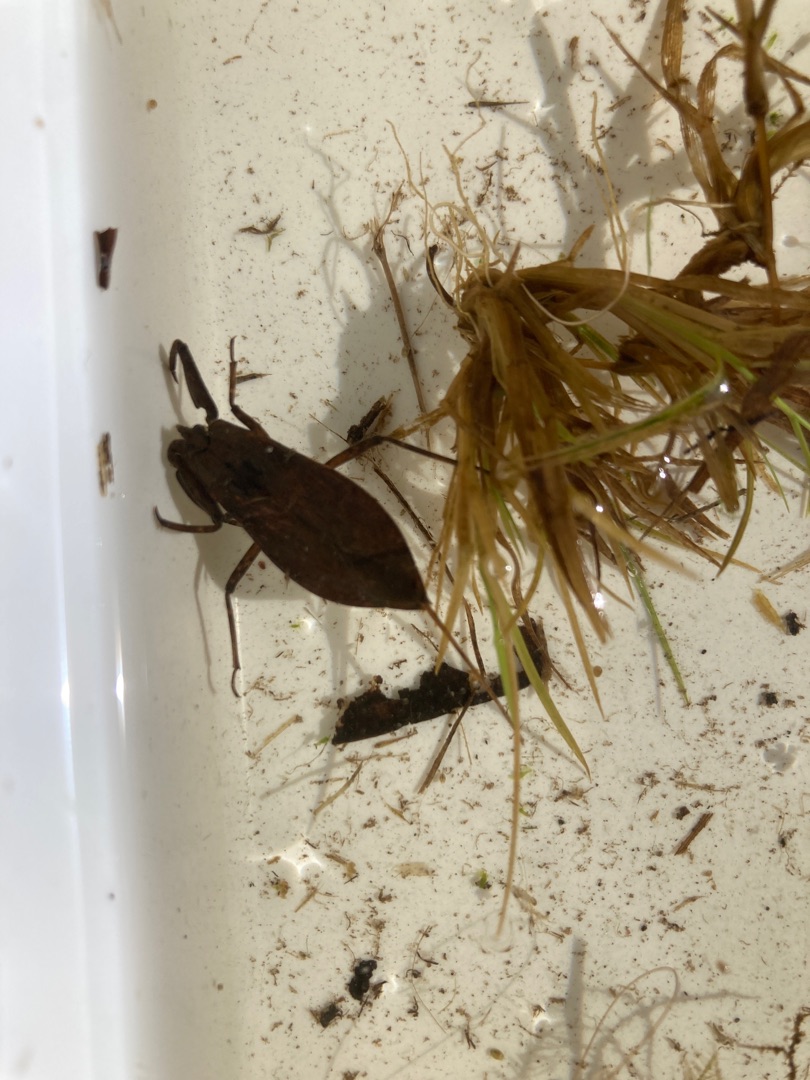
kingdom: Animalia
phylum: Arthropoda
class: Insecta
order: Hemiptera
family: Nepidae
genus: Nepa
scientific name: Nepa cinerea
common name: Skorpiontæge
